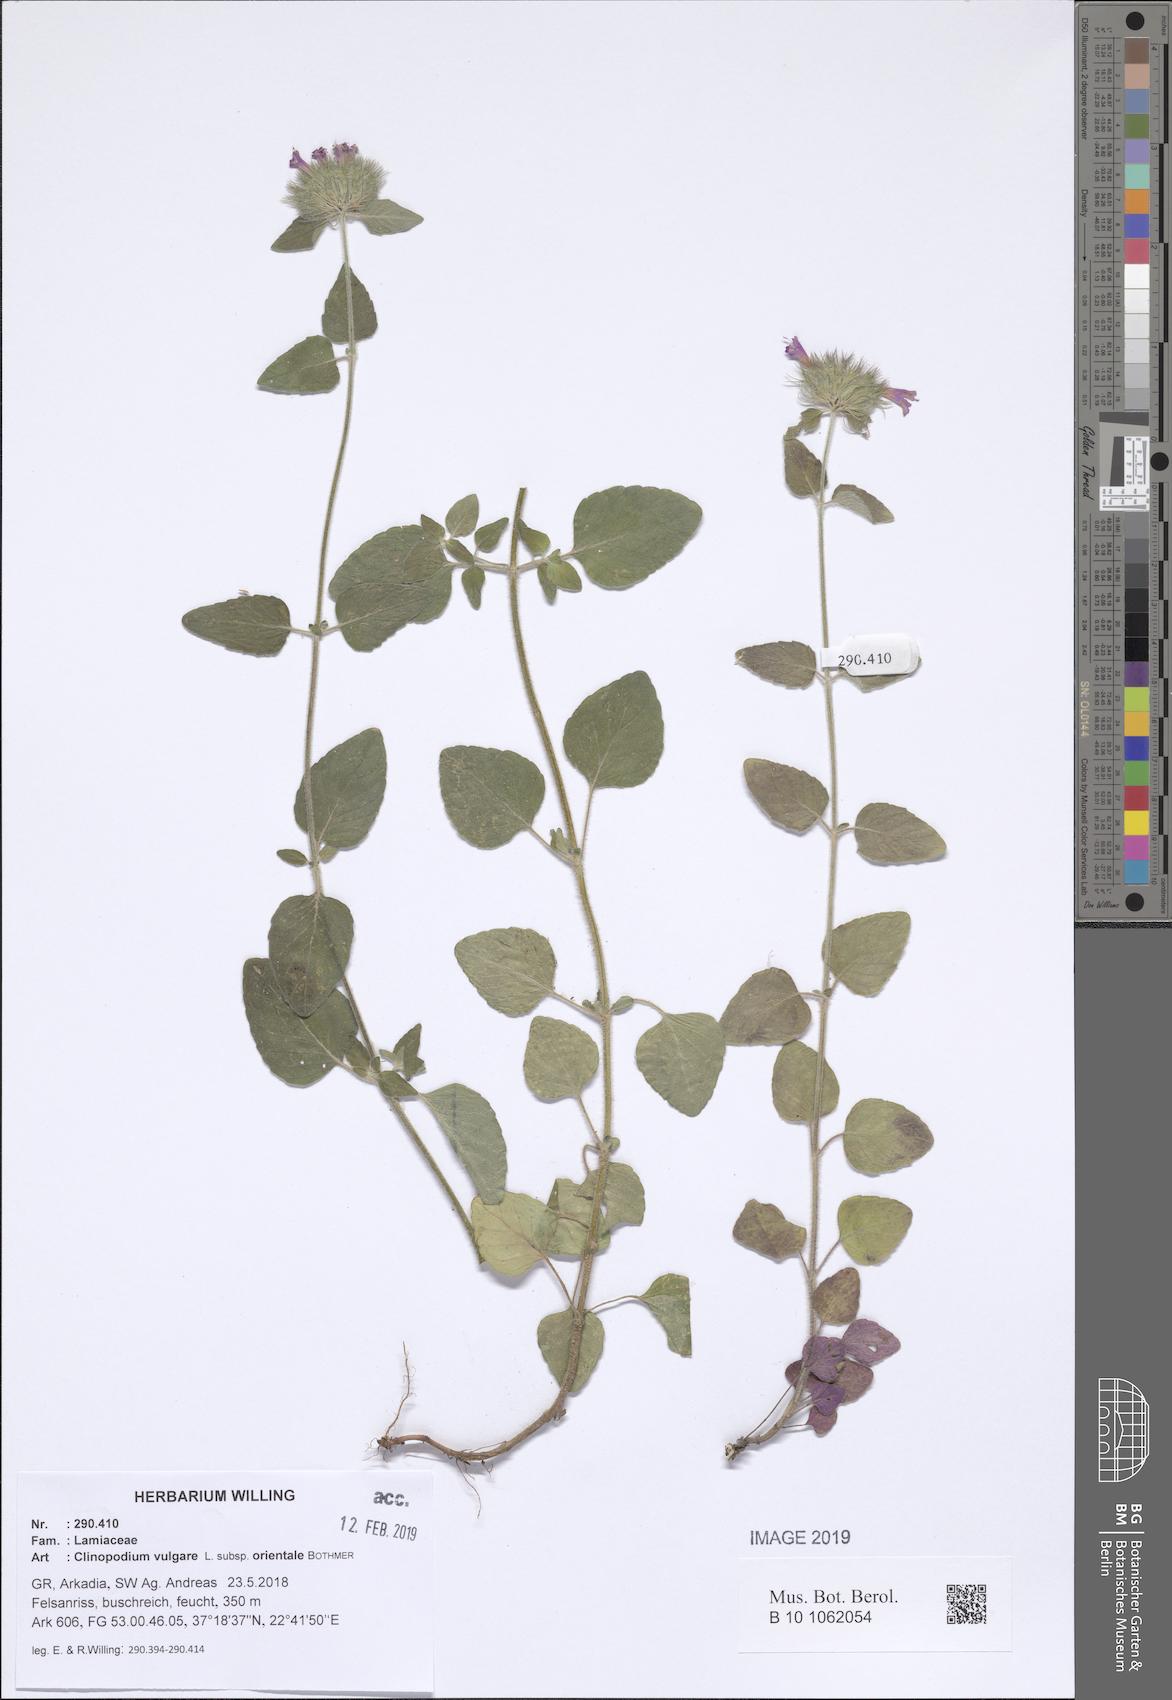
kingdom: Plantae
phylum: Tracheophyta
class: Magnoliopsida
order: Lamiales
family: Lamiaceae
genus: Clinopodium
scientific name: Clinopodium vulgare
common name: Wild basil
